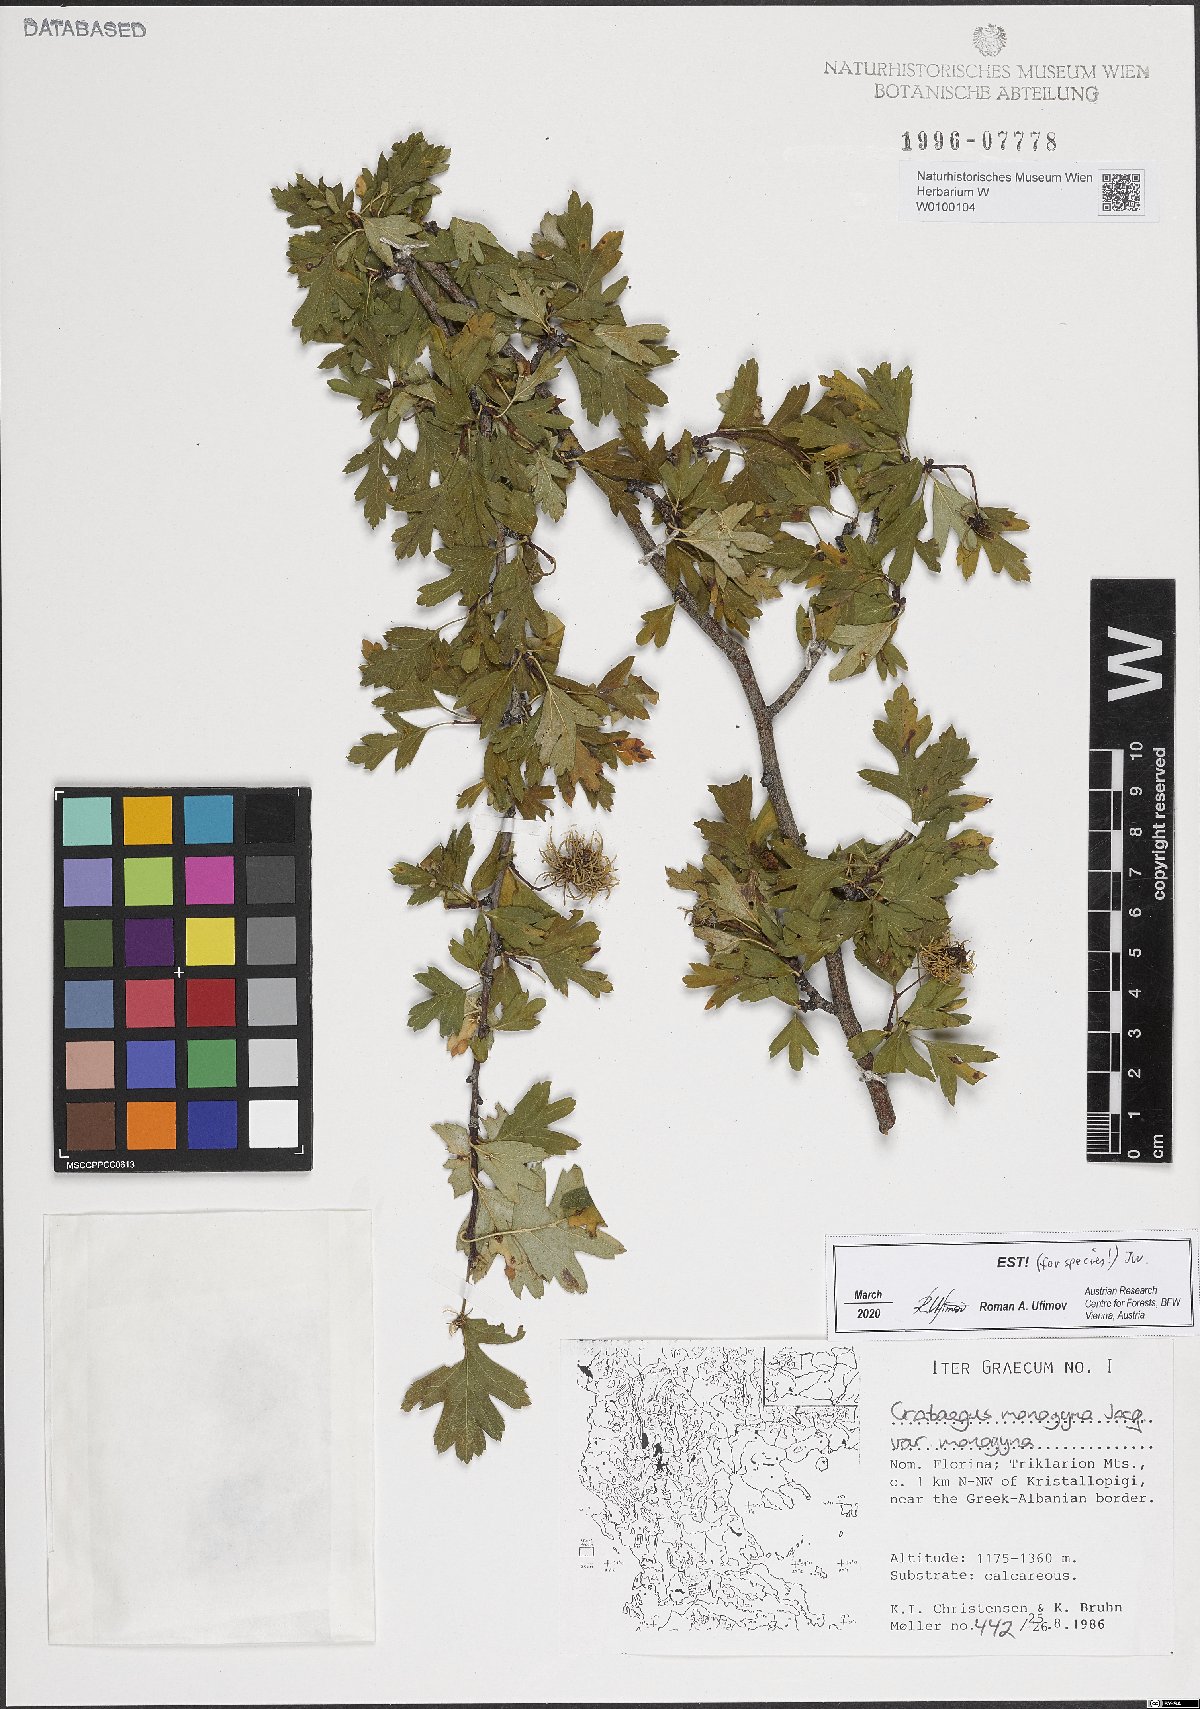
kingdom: Plantae
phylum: Tracheophyta
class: Magnoliopsida
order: Rosales
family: Rosaceae
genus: Crataegus
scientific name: Crataegus monogyna
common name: Hawthorn
